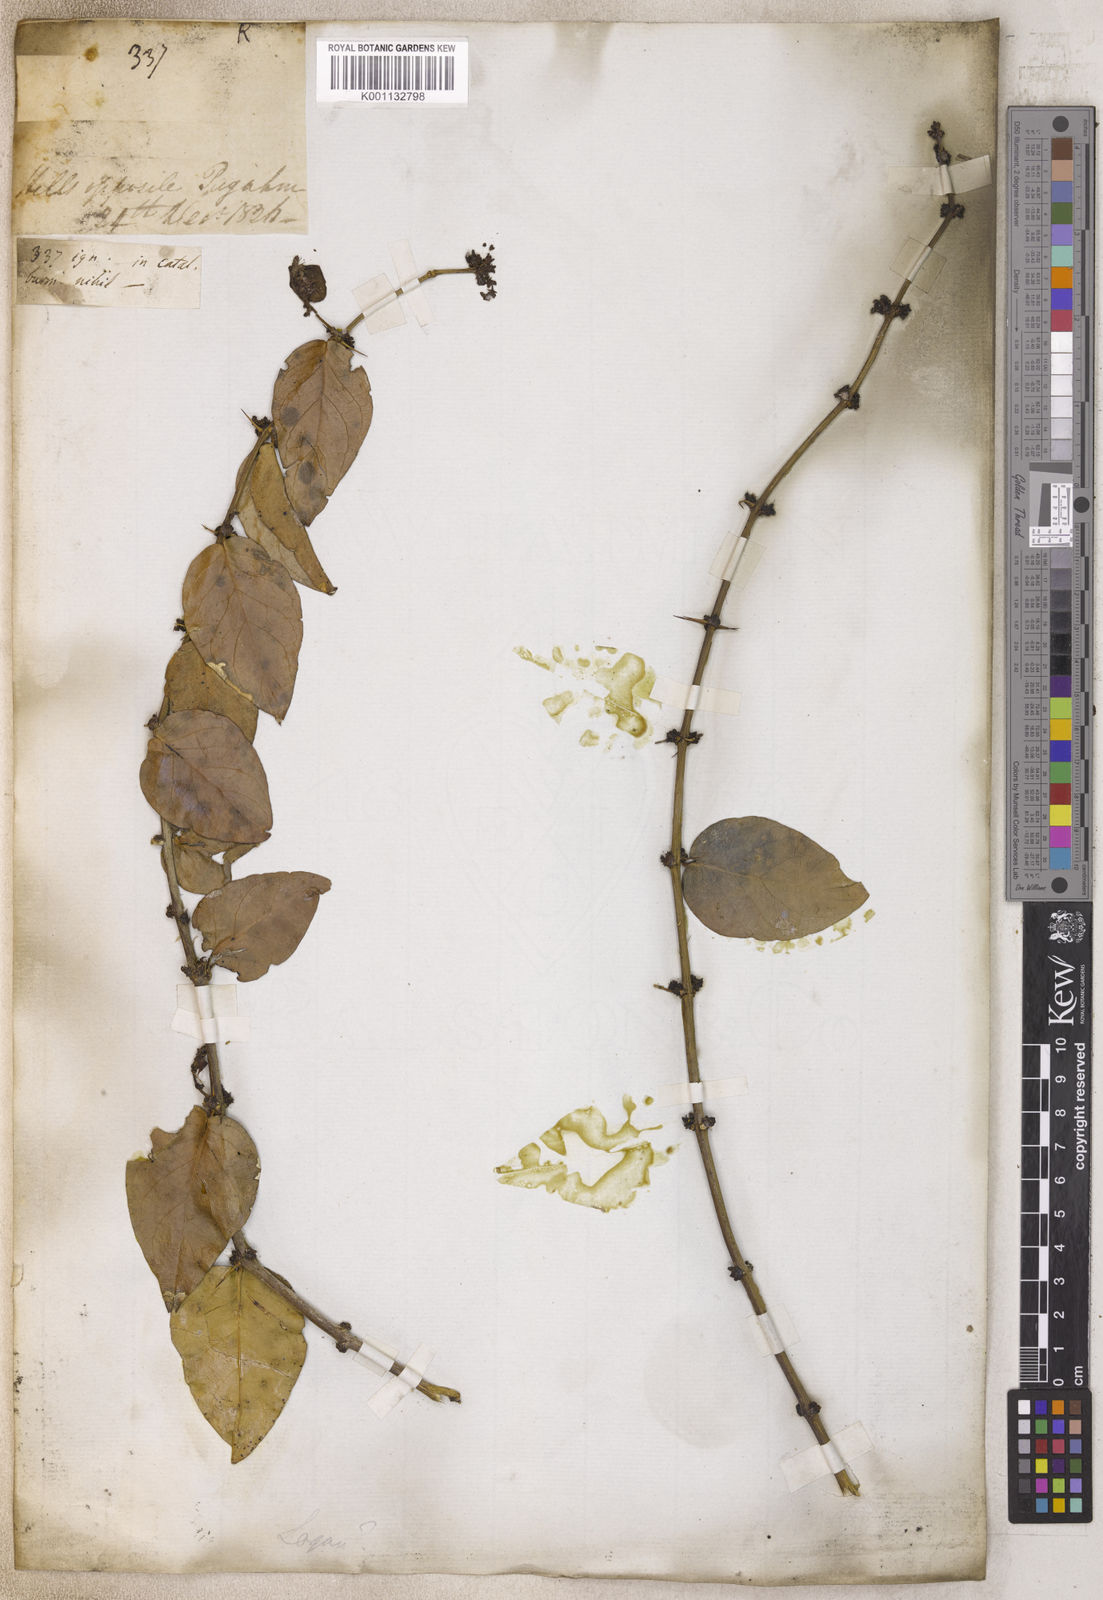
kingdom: Plantae
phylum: Tracheophyta
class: Magnoliopsida
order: Gentianales
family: Loganiaceae
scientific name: Loganiaceae
